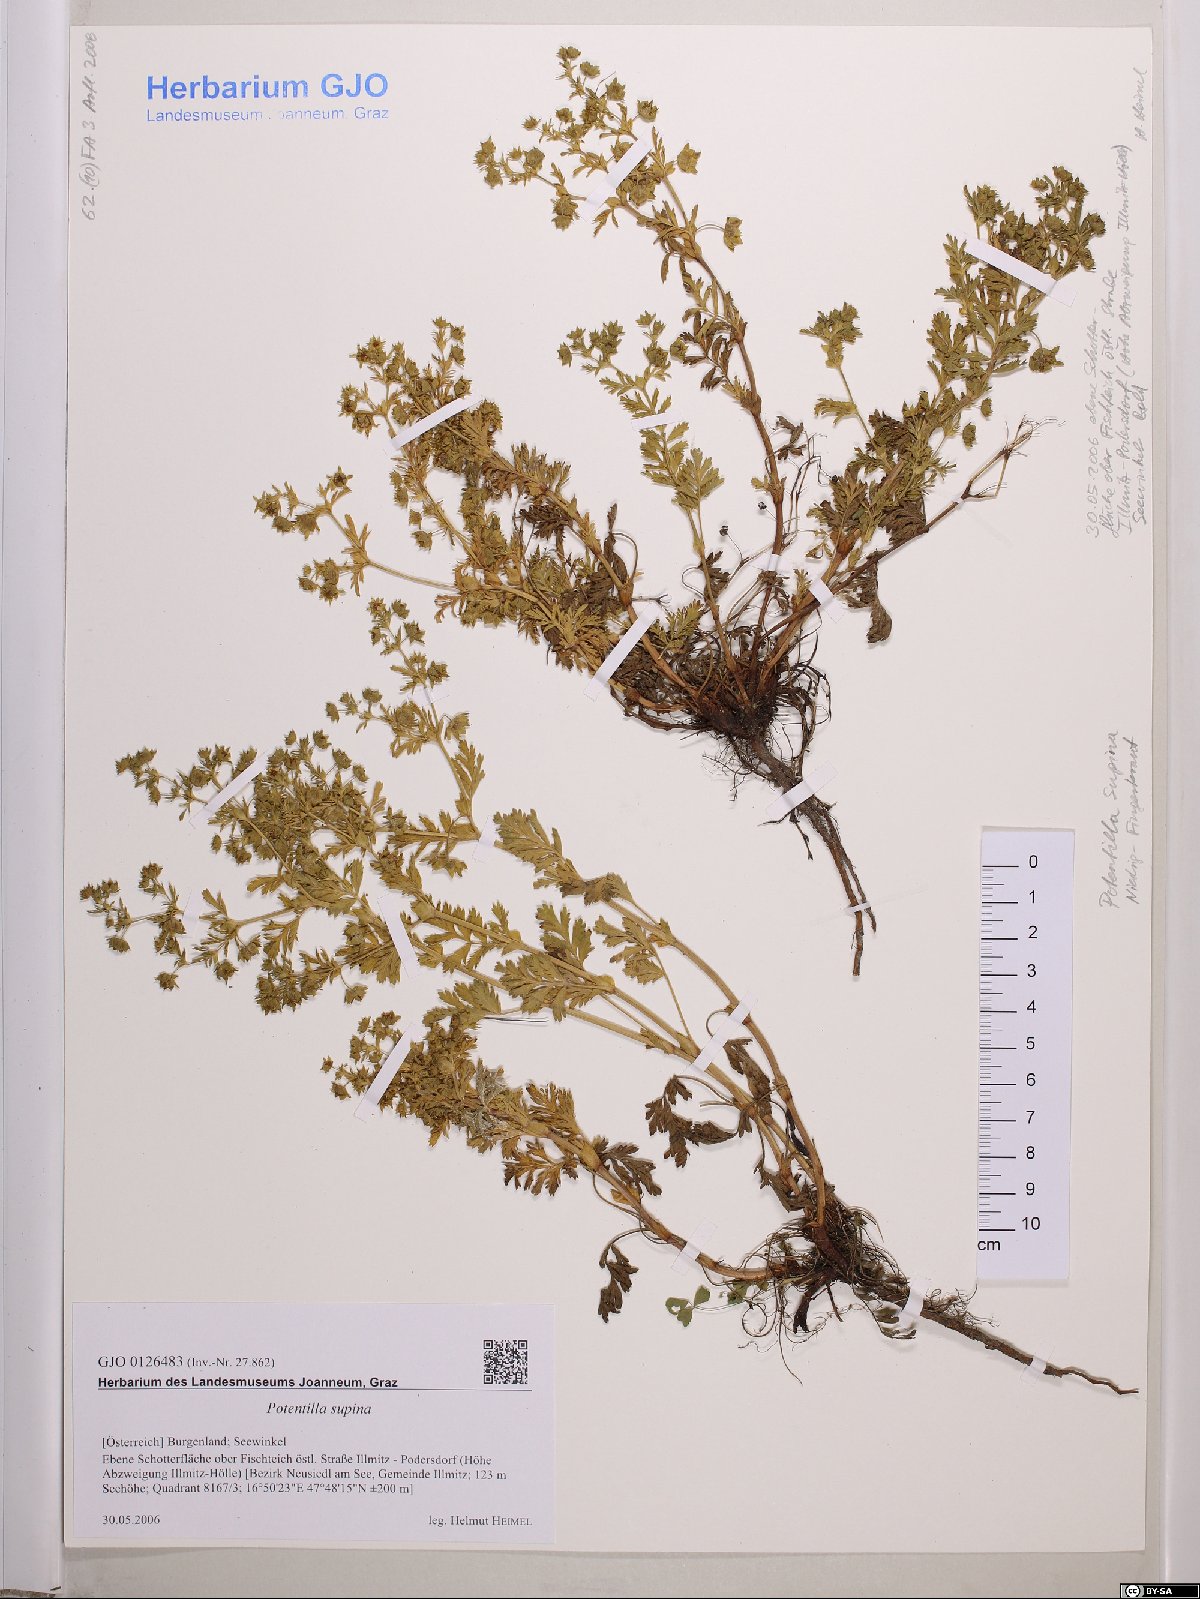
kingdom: Plantae
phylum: Tracheophyta
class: Magnoliopsida
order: Rosales
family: Rosaceae
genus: Potentilla
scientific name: Potentilla supina
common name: Prostrate cinquefoil
